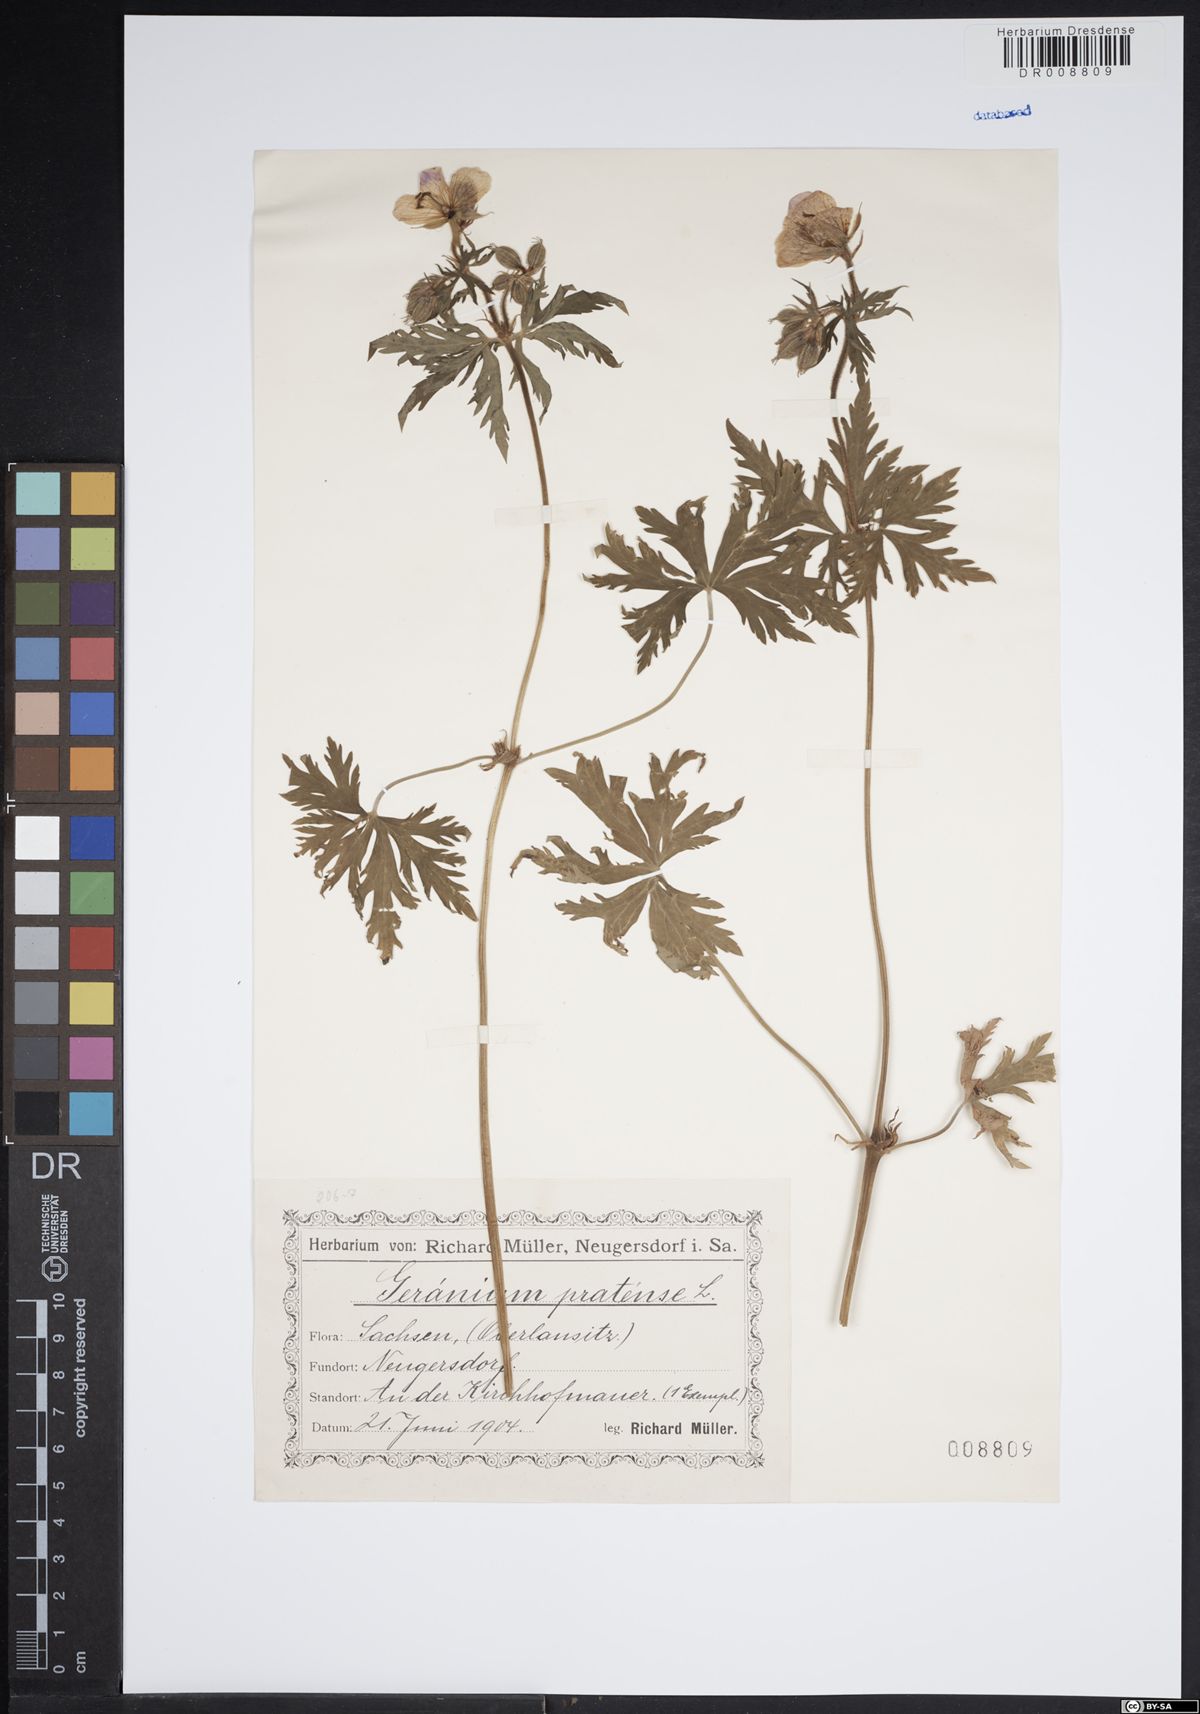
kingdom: Plantae
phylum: Tracheophyta
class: Magnoliopsida
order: Geraniales
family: Geraniaceae
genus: Geranium
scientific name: Geranium pratense
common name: Meadow crane's-bill
